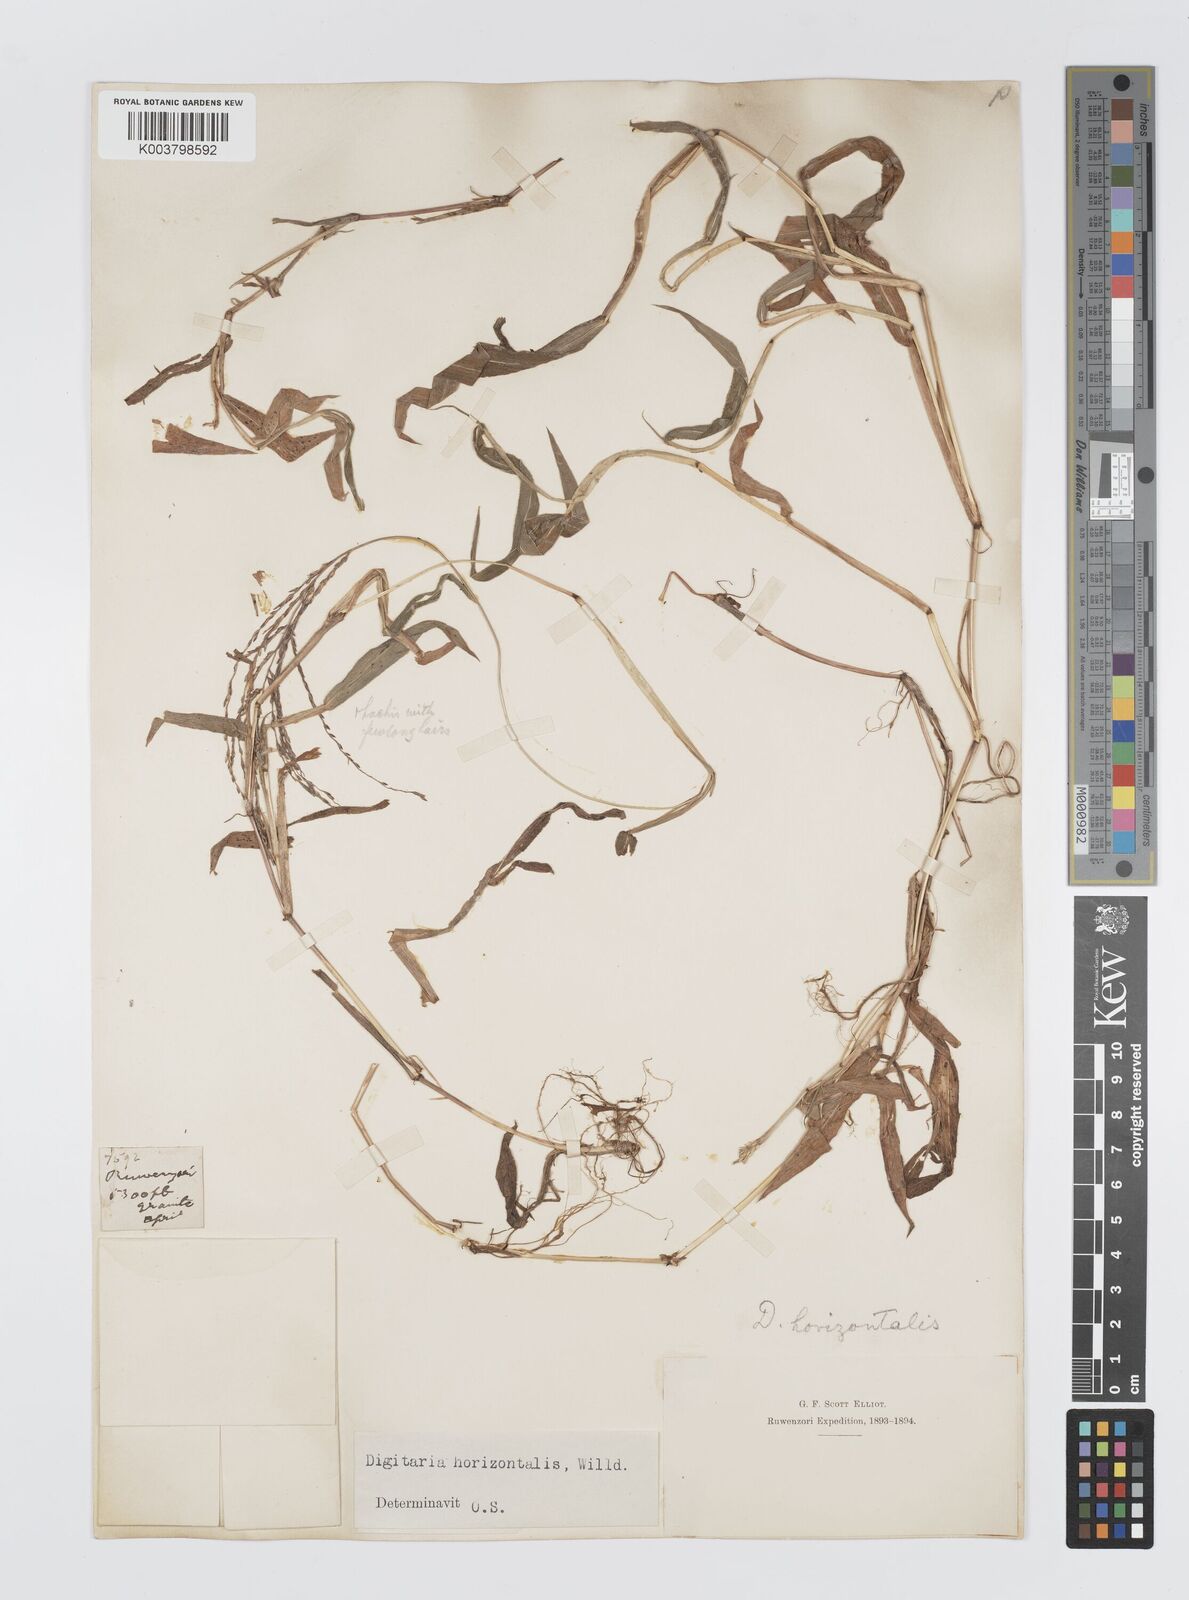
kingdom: Plantae
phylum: Tracheophyta
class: Liliopsida
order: Poales
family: Poaceae
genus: Digitaria
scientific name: Digitaria pearsonii
